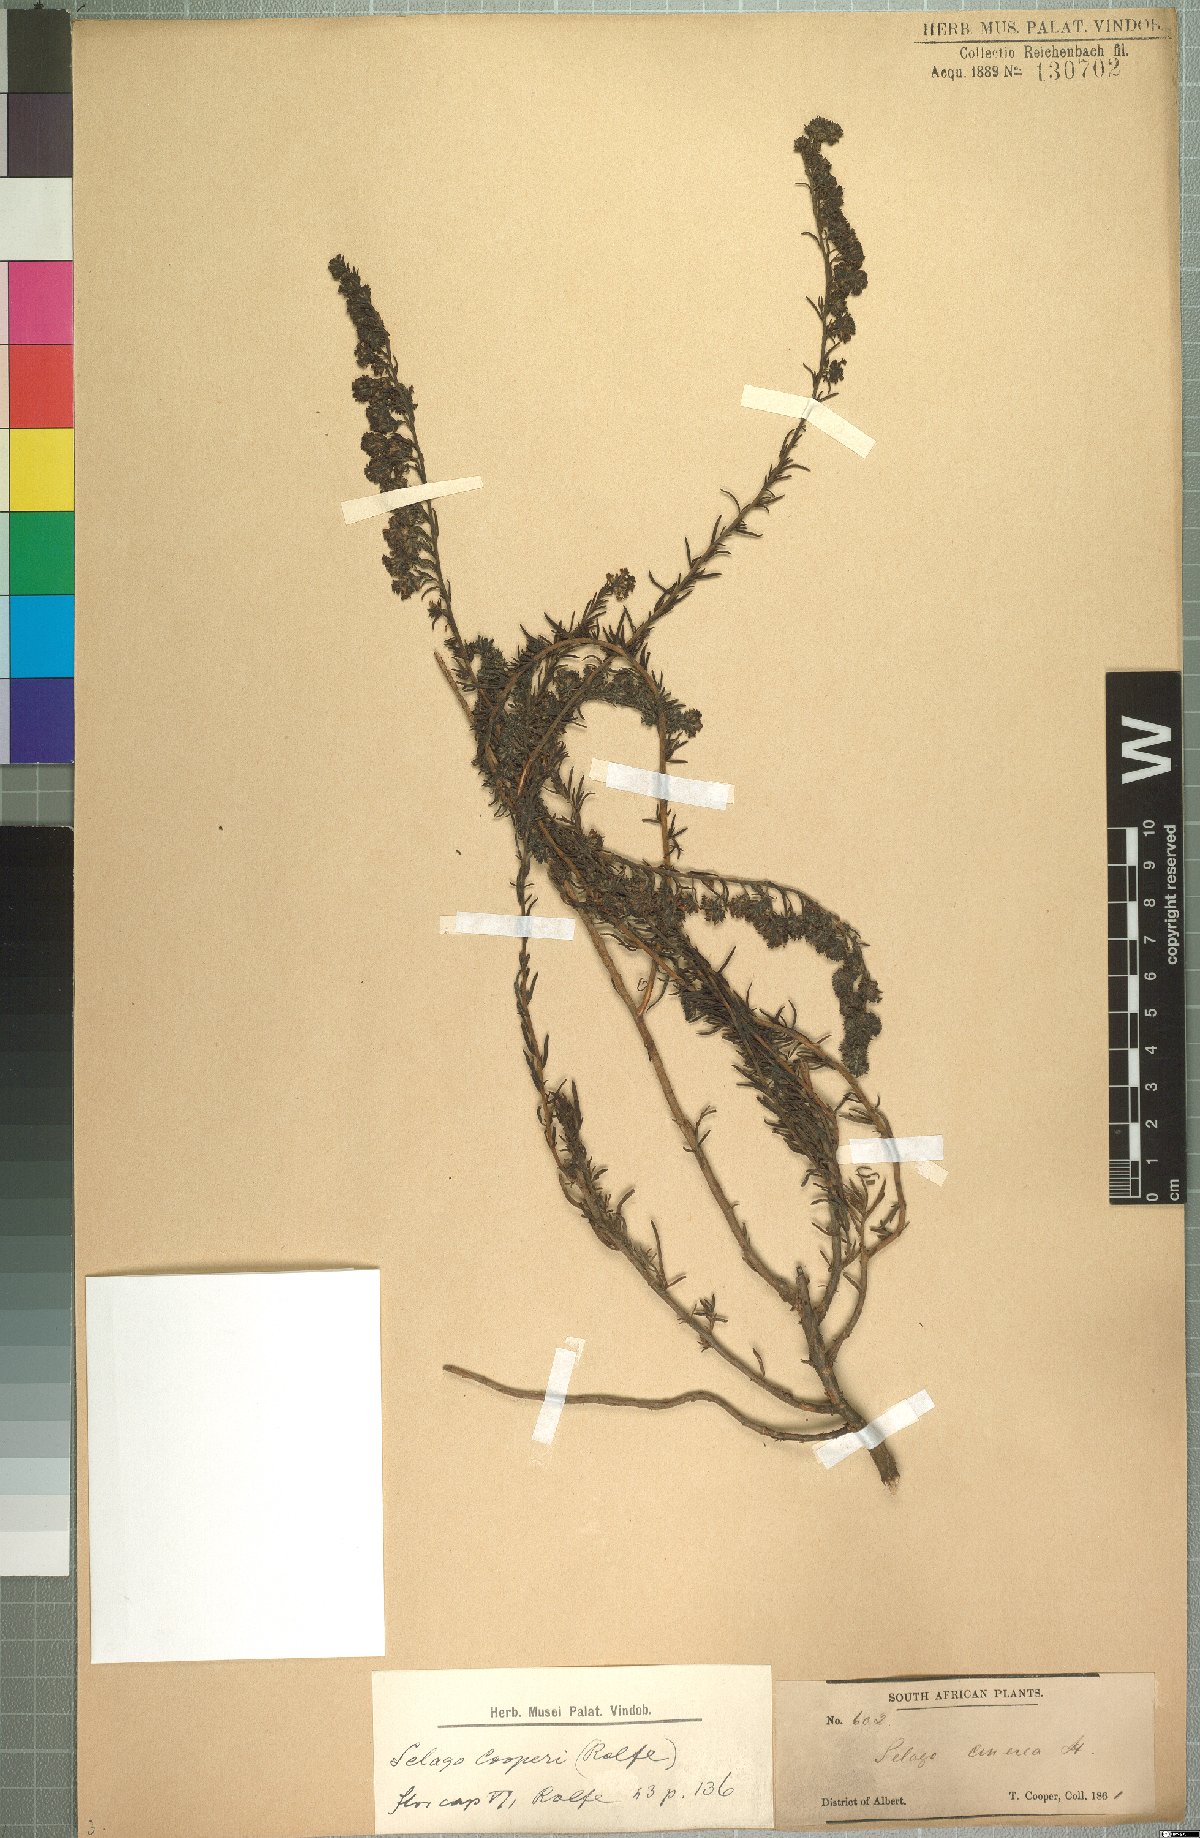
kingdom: Plantae
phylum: Tracheophyta
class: Magnoliopsida
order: Lamiales
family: Scrophulariaceae
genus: Selago
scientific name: Selago galpinii
